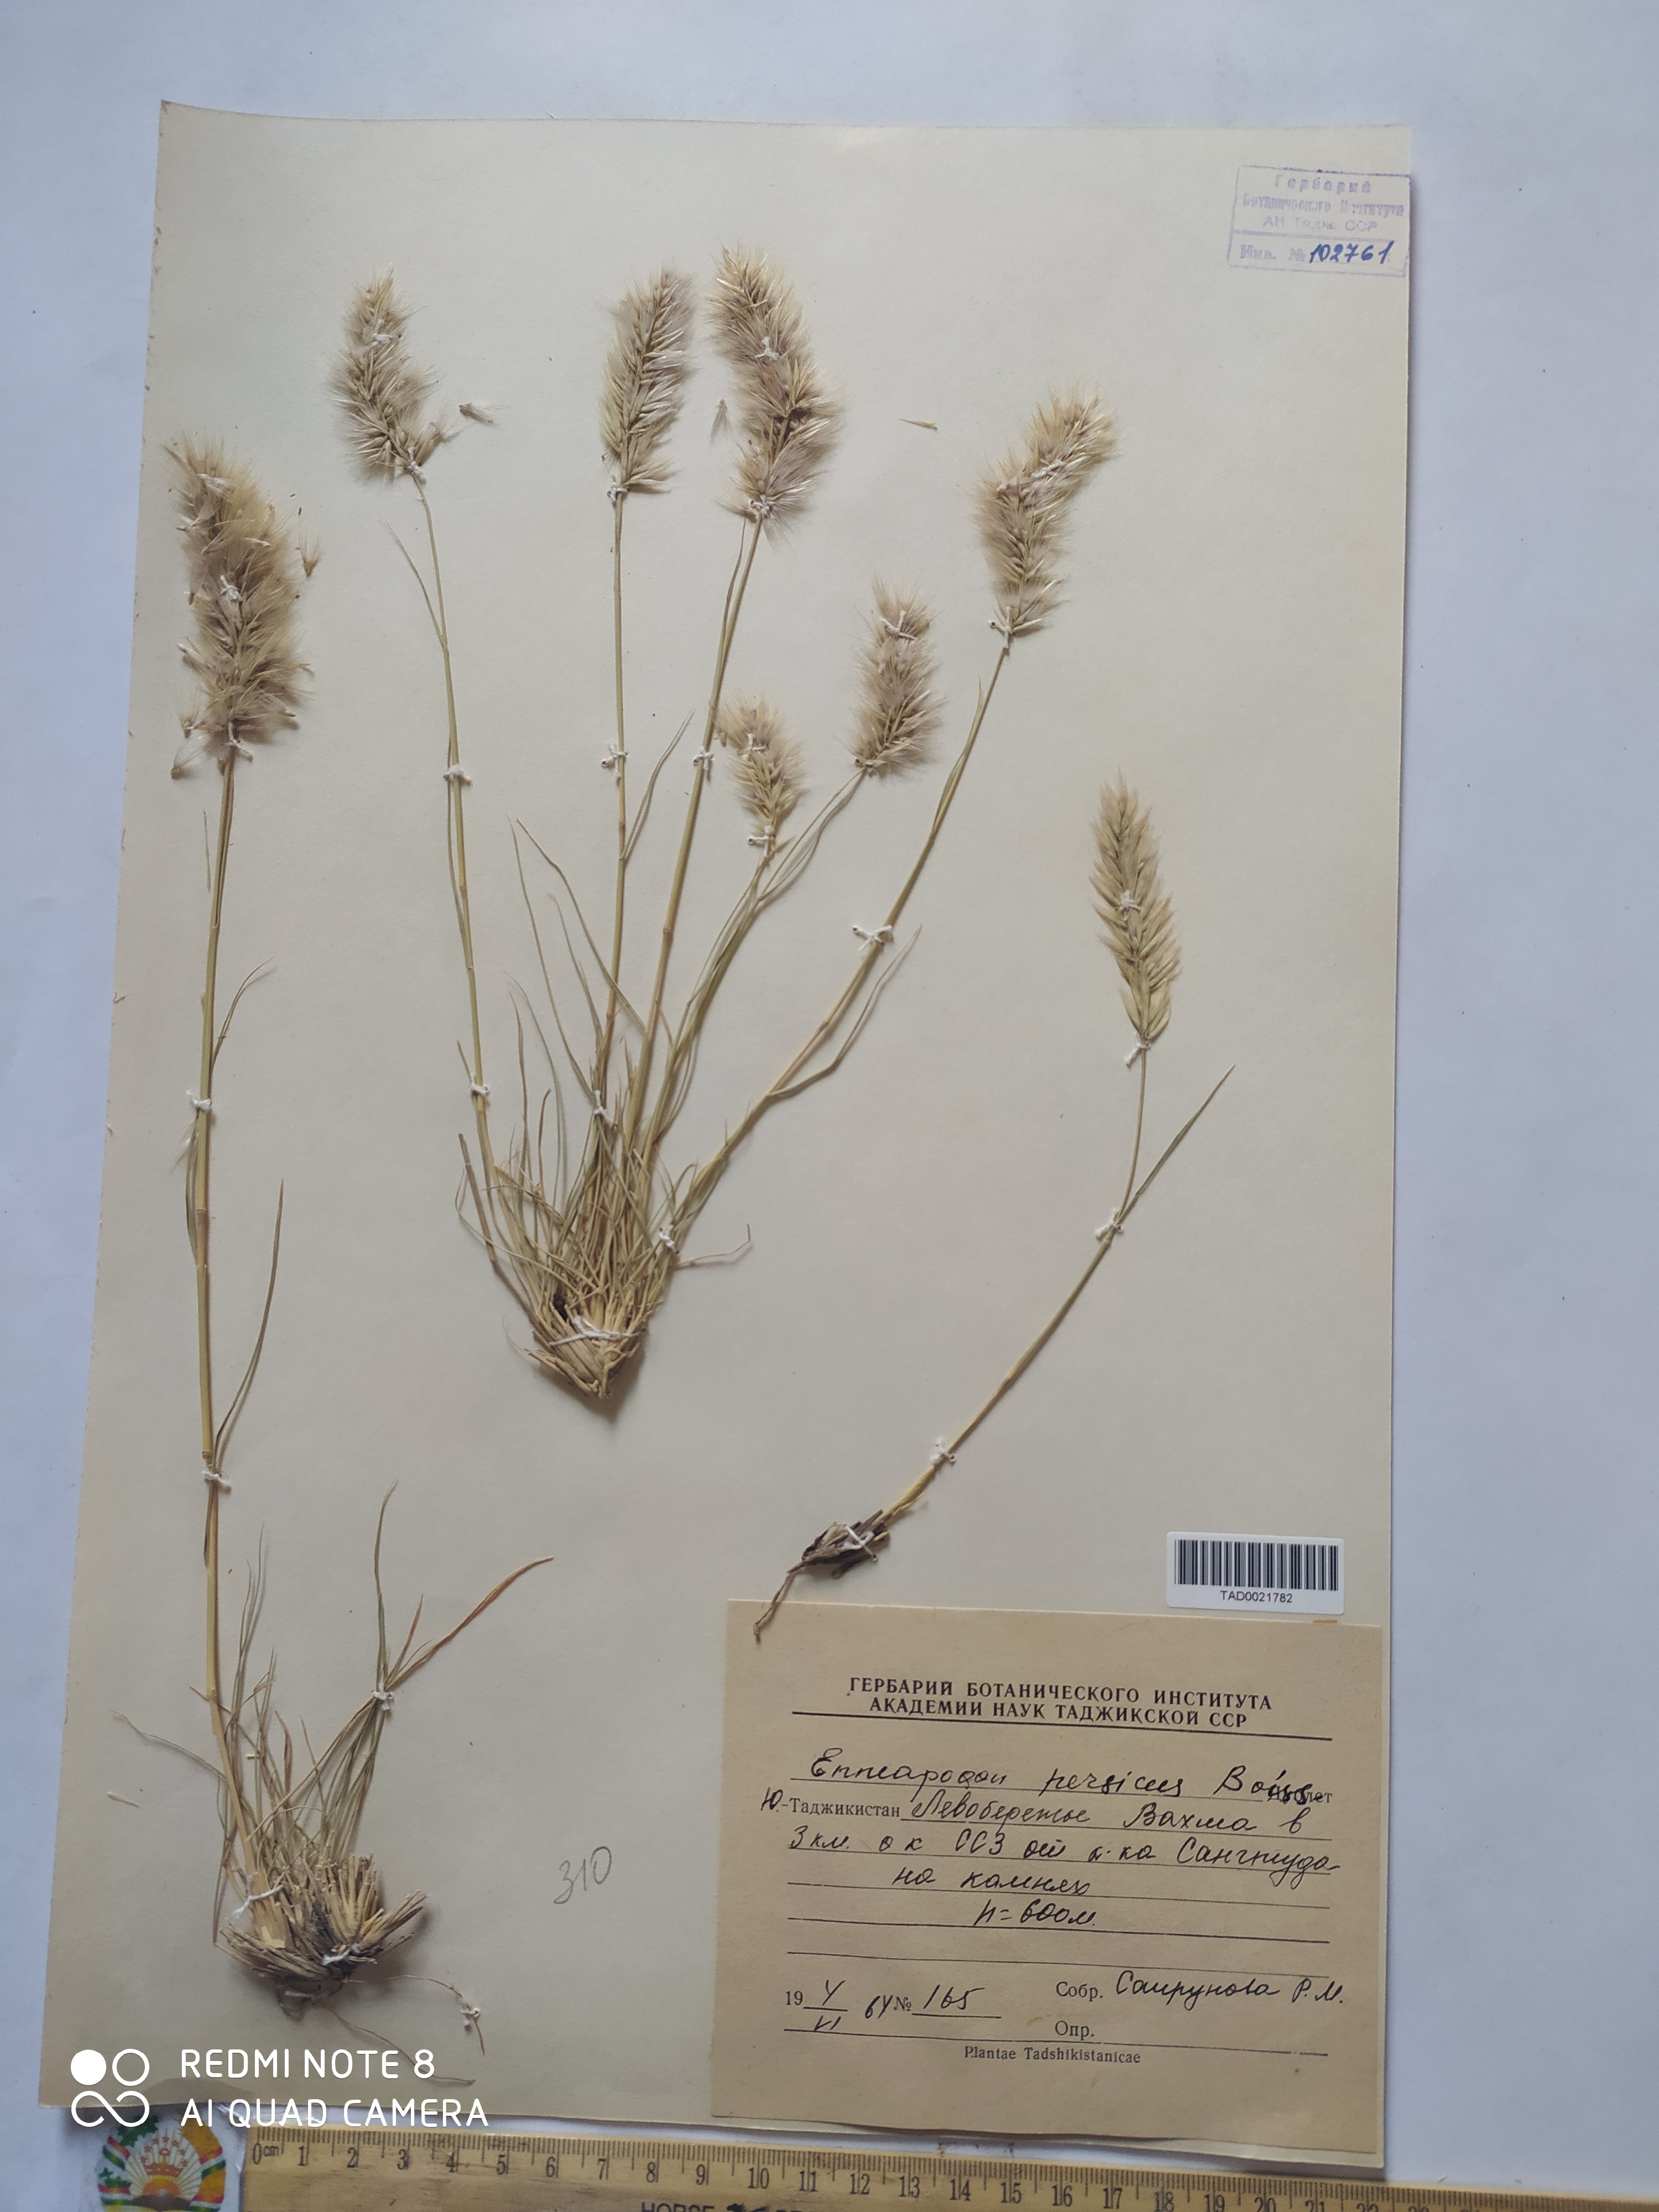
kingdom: Plantae
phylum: Tracheophyta
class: Liliopsida
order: Poales
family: Poaceae
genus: Enneapogon
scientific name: Enneapogon persicus
